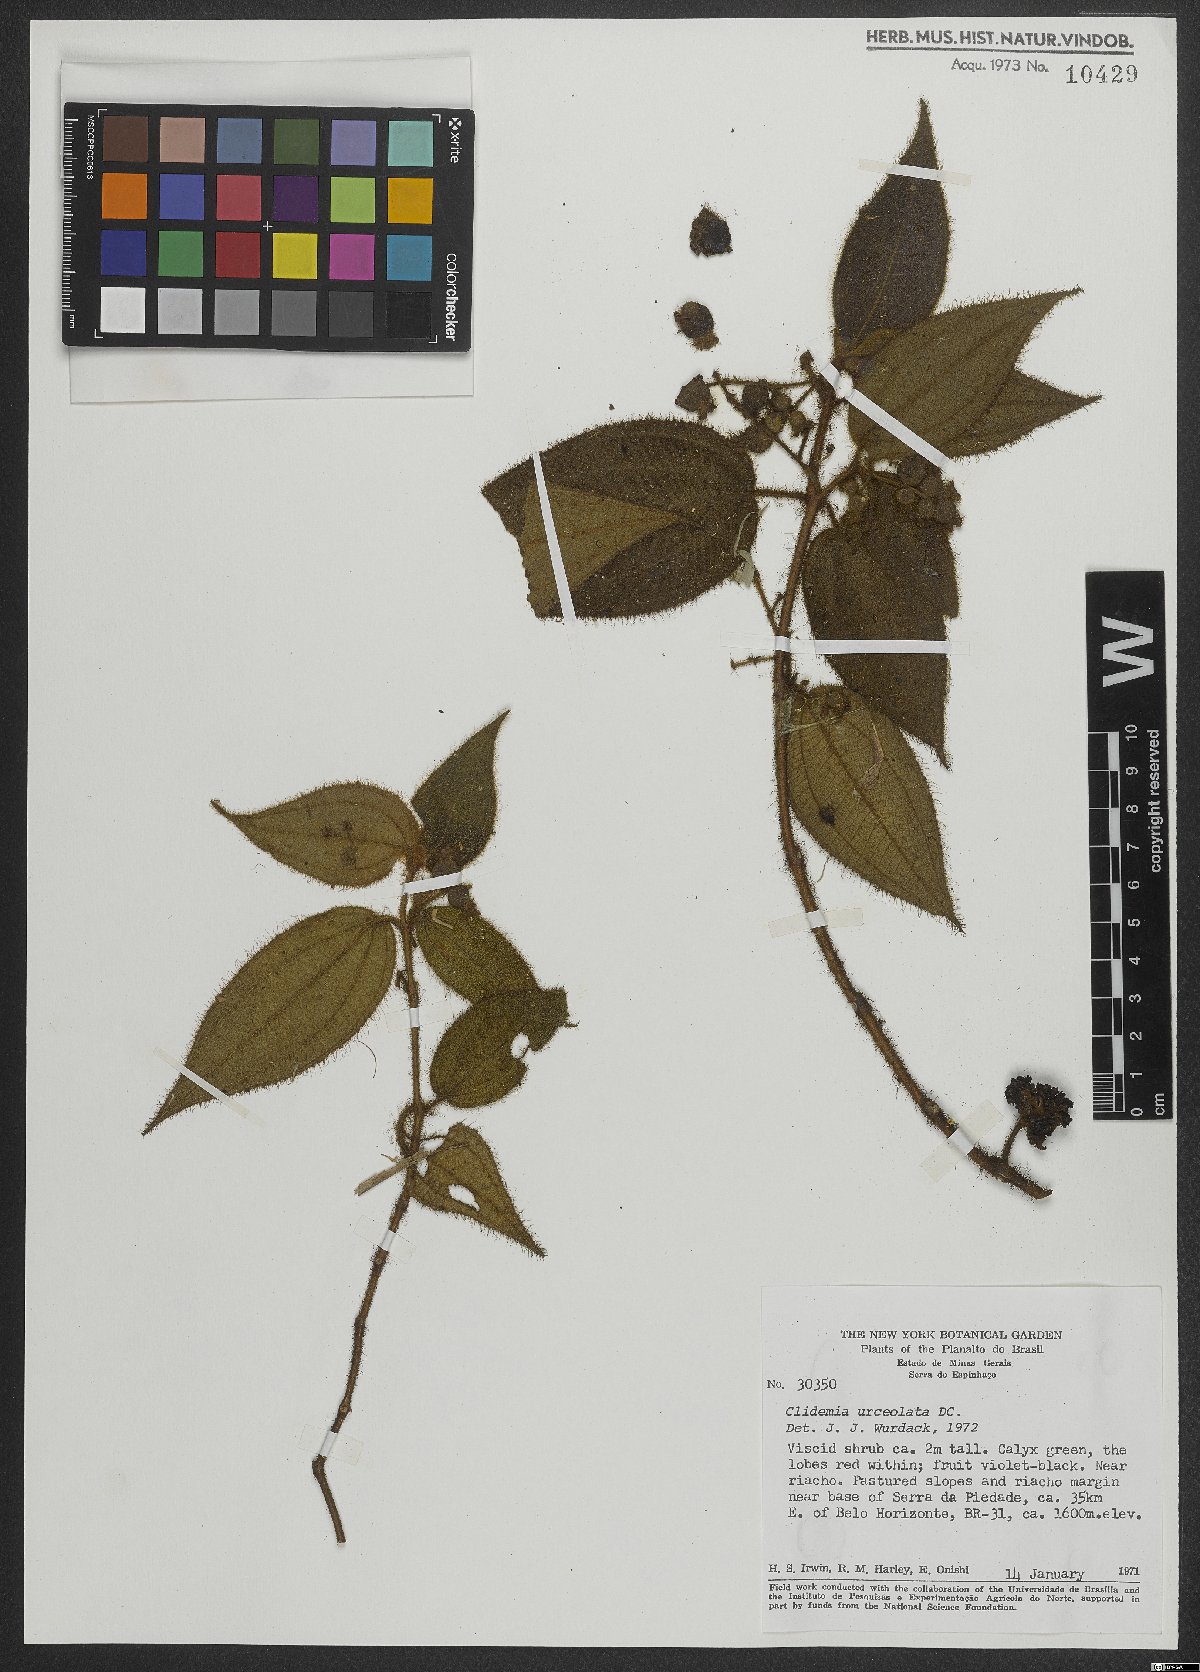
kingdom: Plantae
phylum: Tracheophyta
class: Magnoliopsida
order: Myrtales
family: Melastomataceae
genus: Miconia
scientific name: Miconia neourceolata
